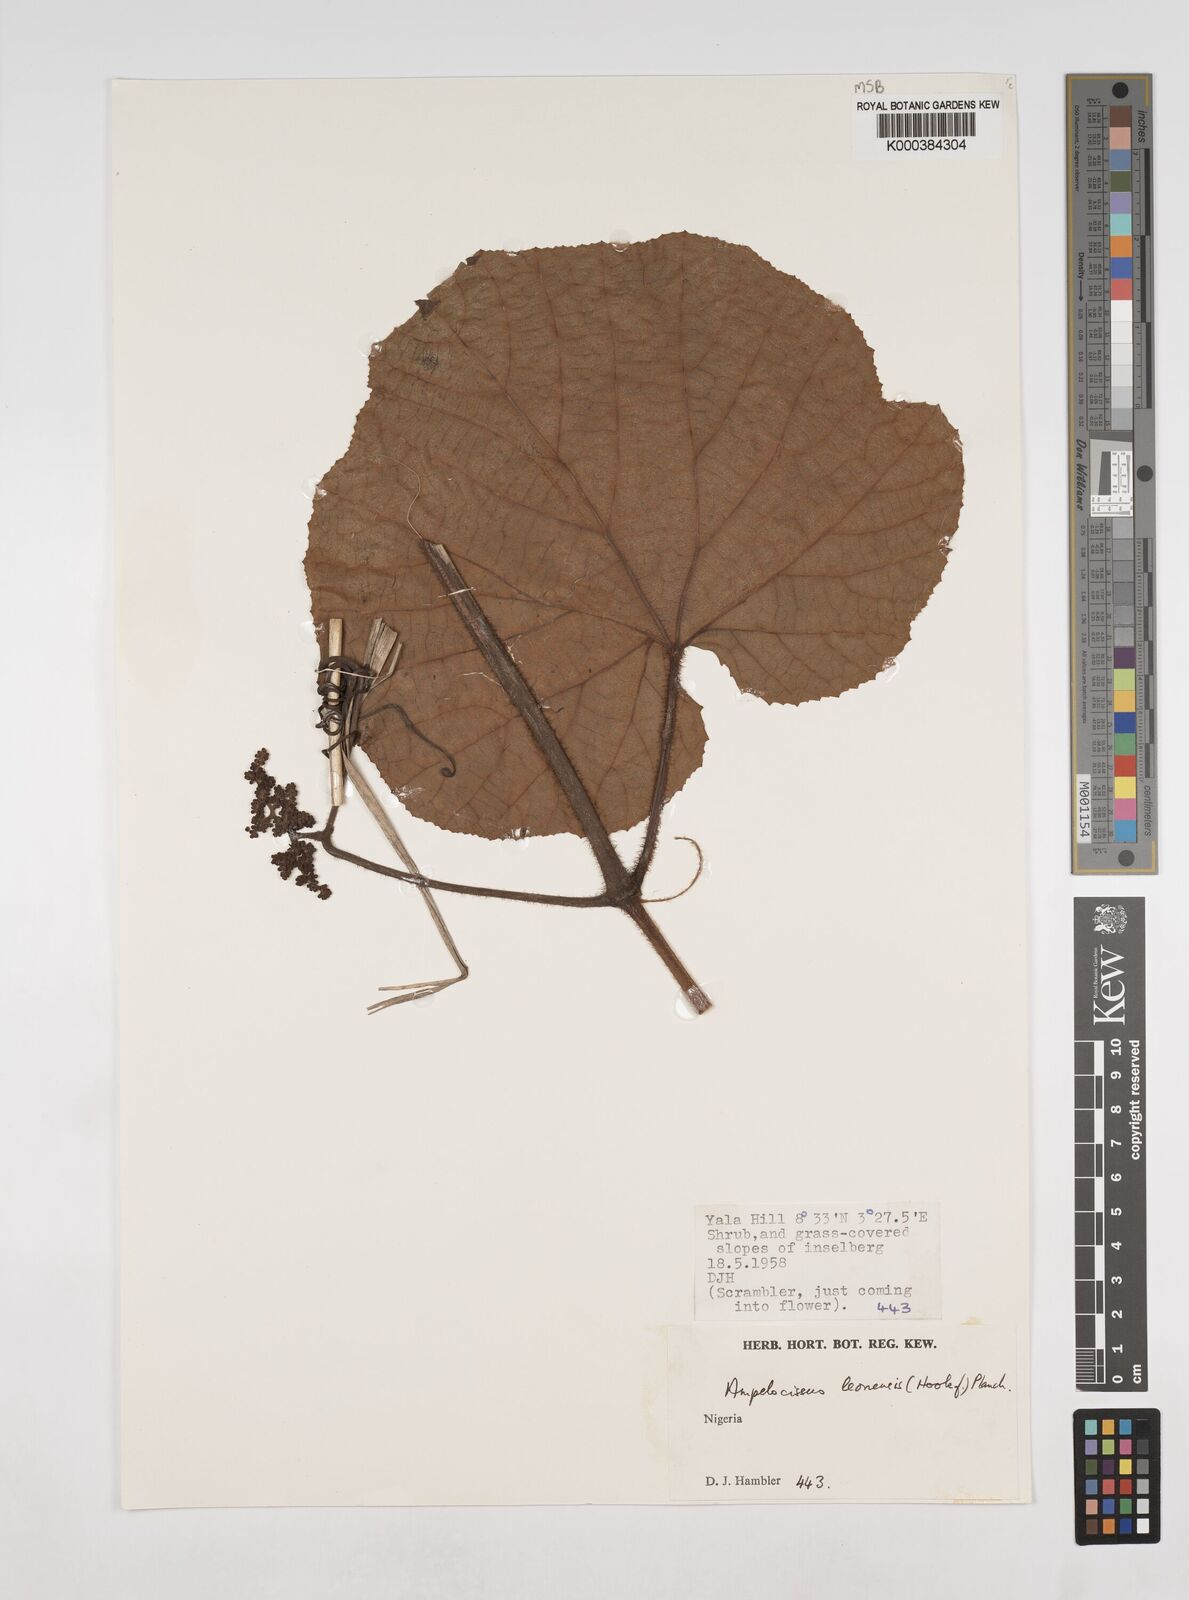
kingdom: Plantae
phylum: Tracheophyta
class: Magnoliopsida
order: Vitales
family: Vitaceae
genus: Ampelocissus
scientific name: Ampelocissus leonensis
